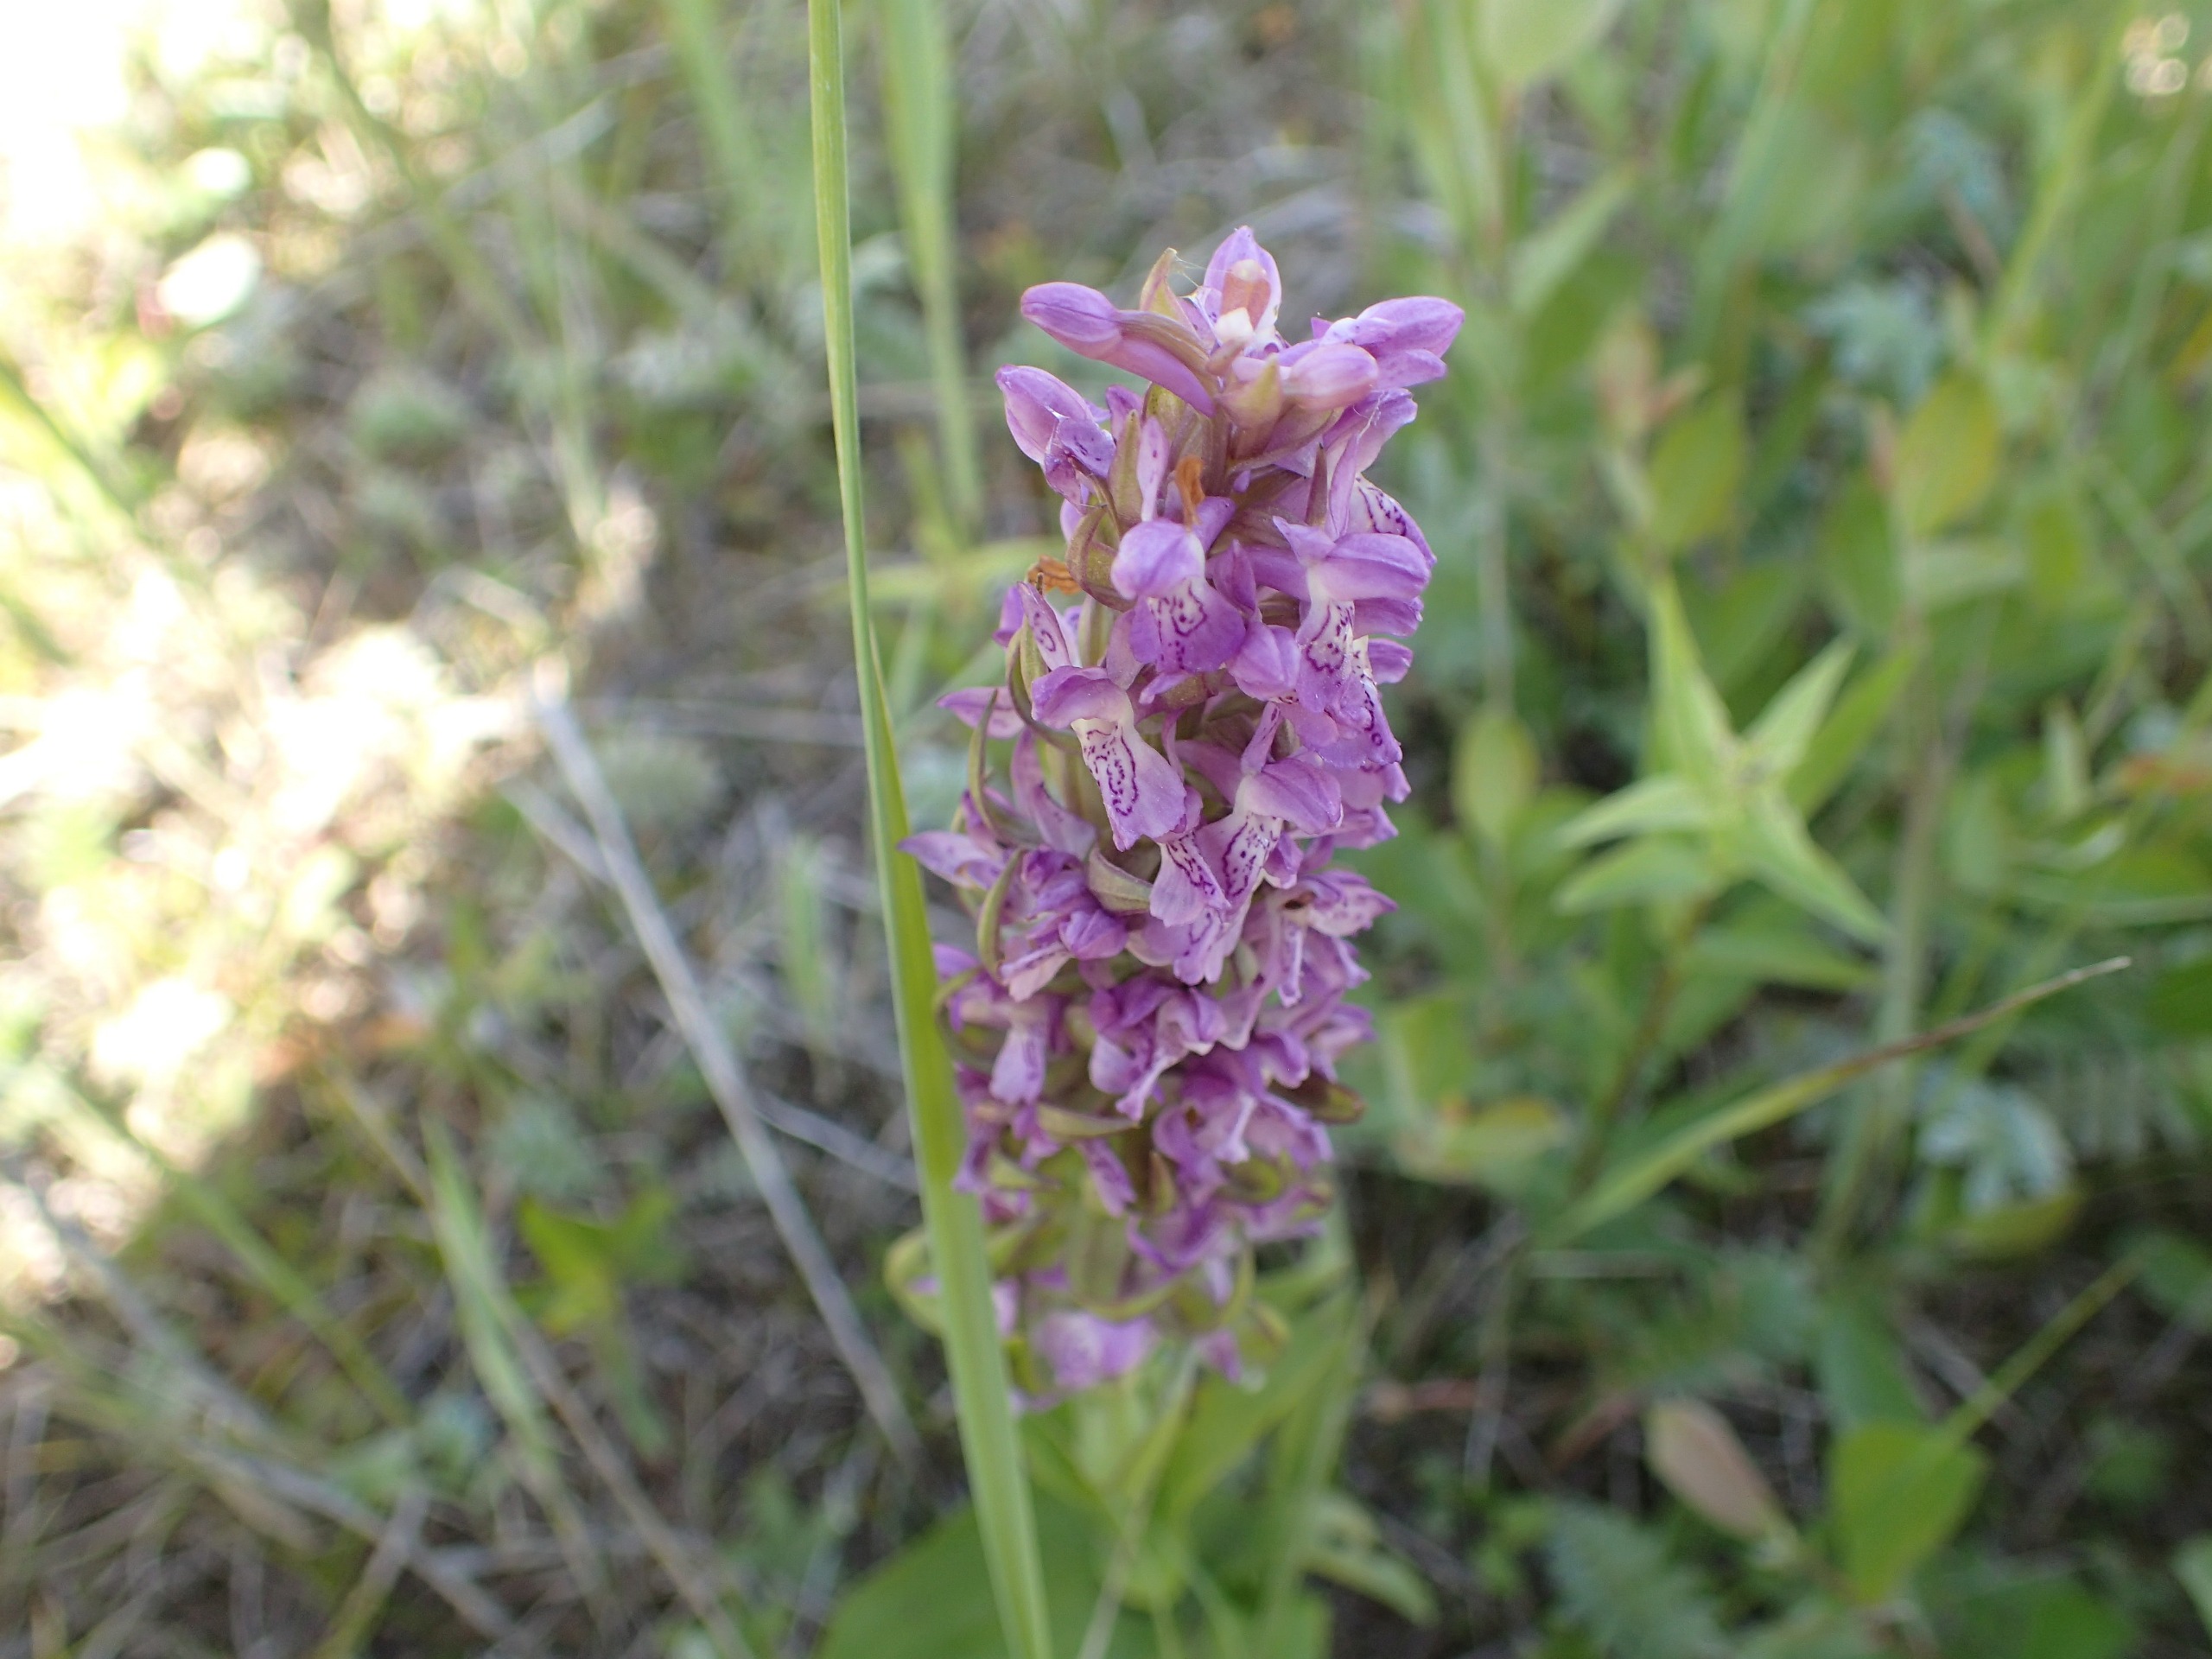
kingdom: Plantae
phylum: Tracheophyta
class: Liliopsida
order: Asparagales
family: Orchidaceae
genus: Dactylorhiza
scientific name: Dactylorhiza incarnata
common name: Kødfarvet gøgeurt
